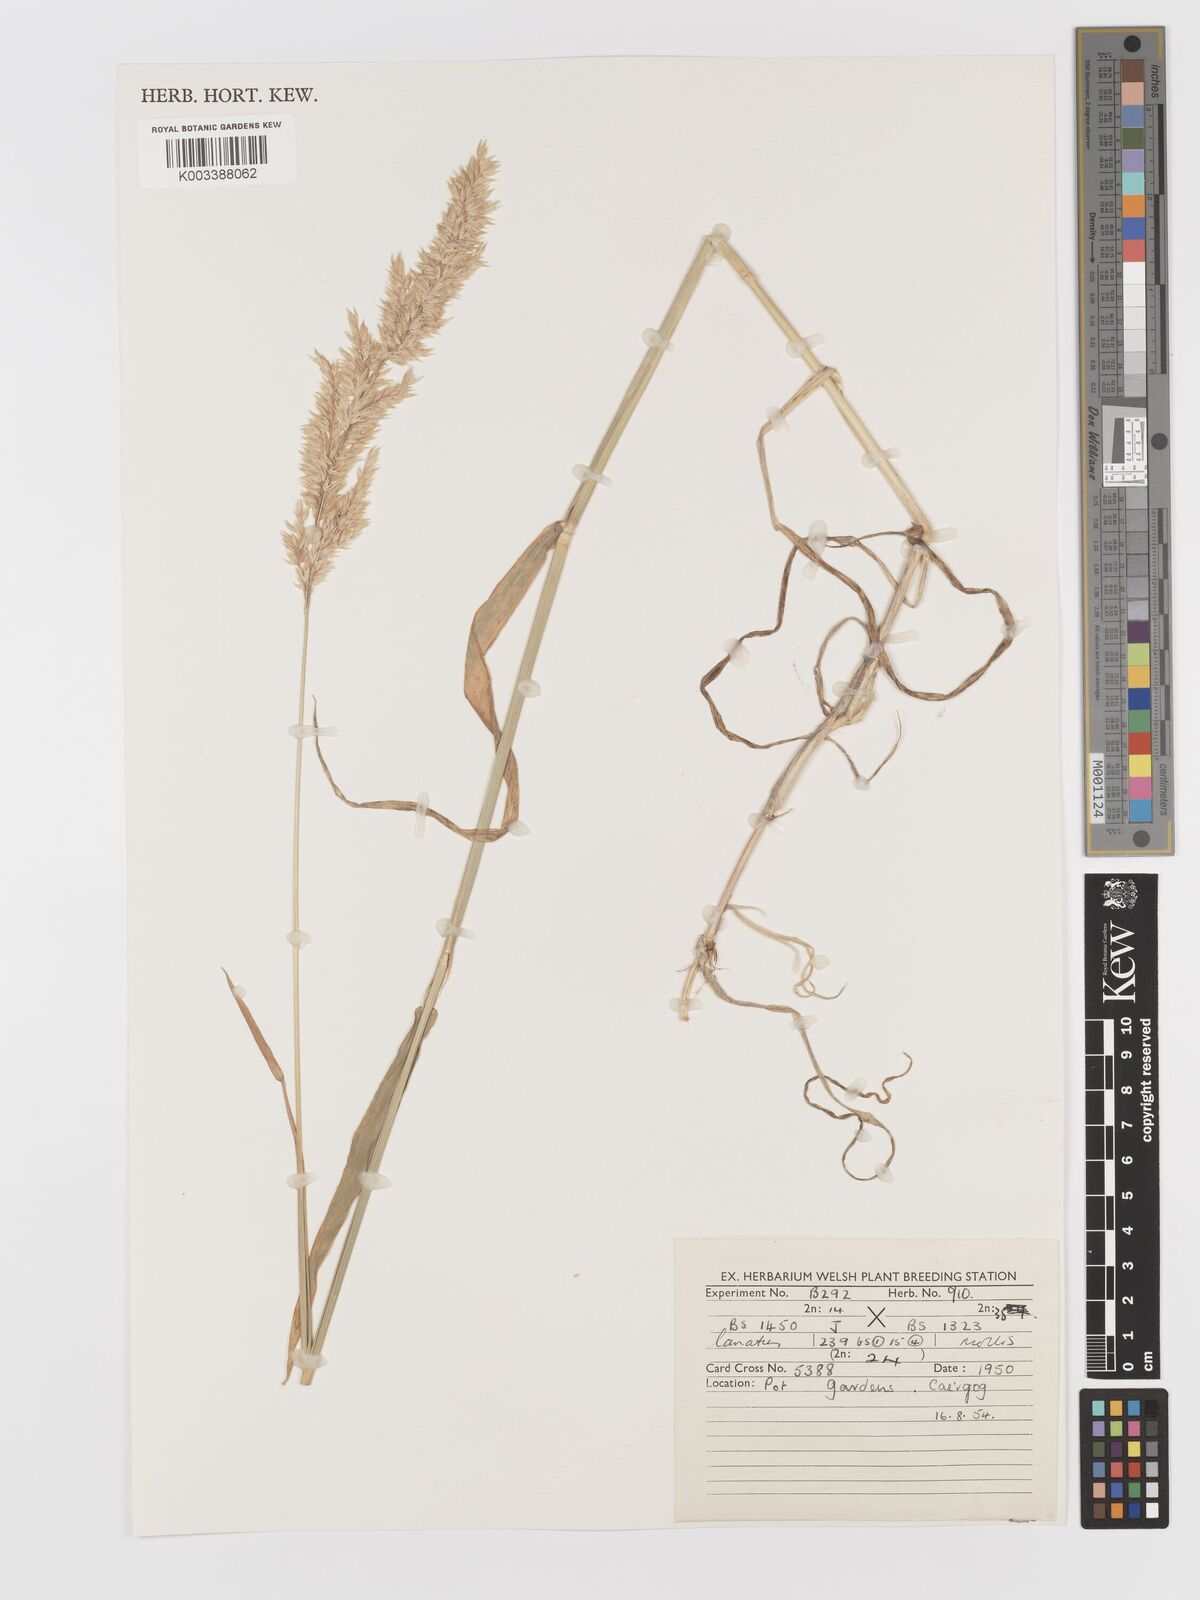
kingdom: Plantae
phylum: Tracheophyta
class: Liliopsida
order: Poales
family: Poaceae
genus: Holcus
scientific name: Holcus lanatus
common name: Yorkshire-fog
